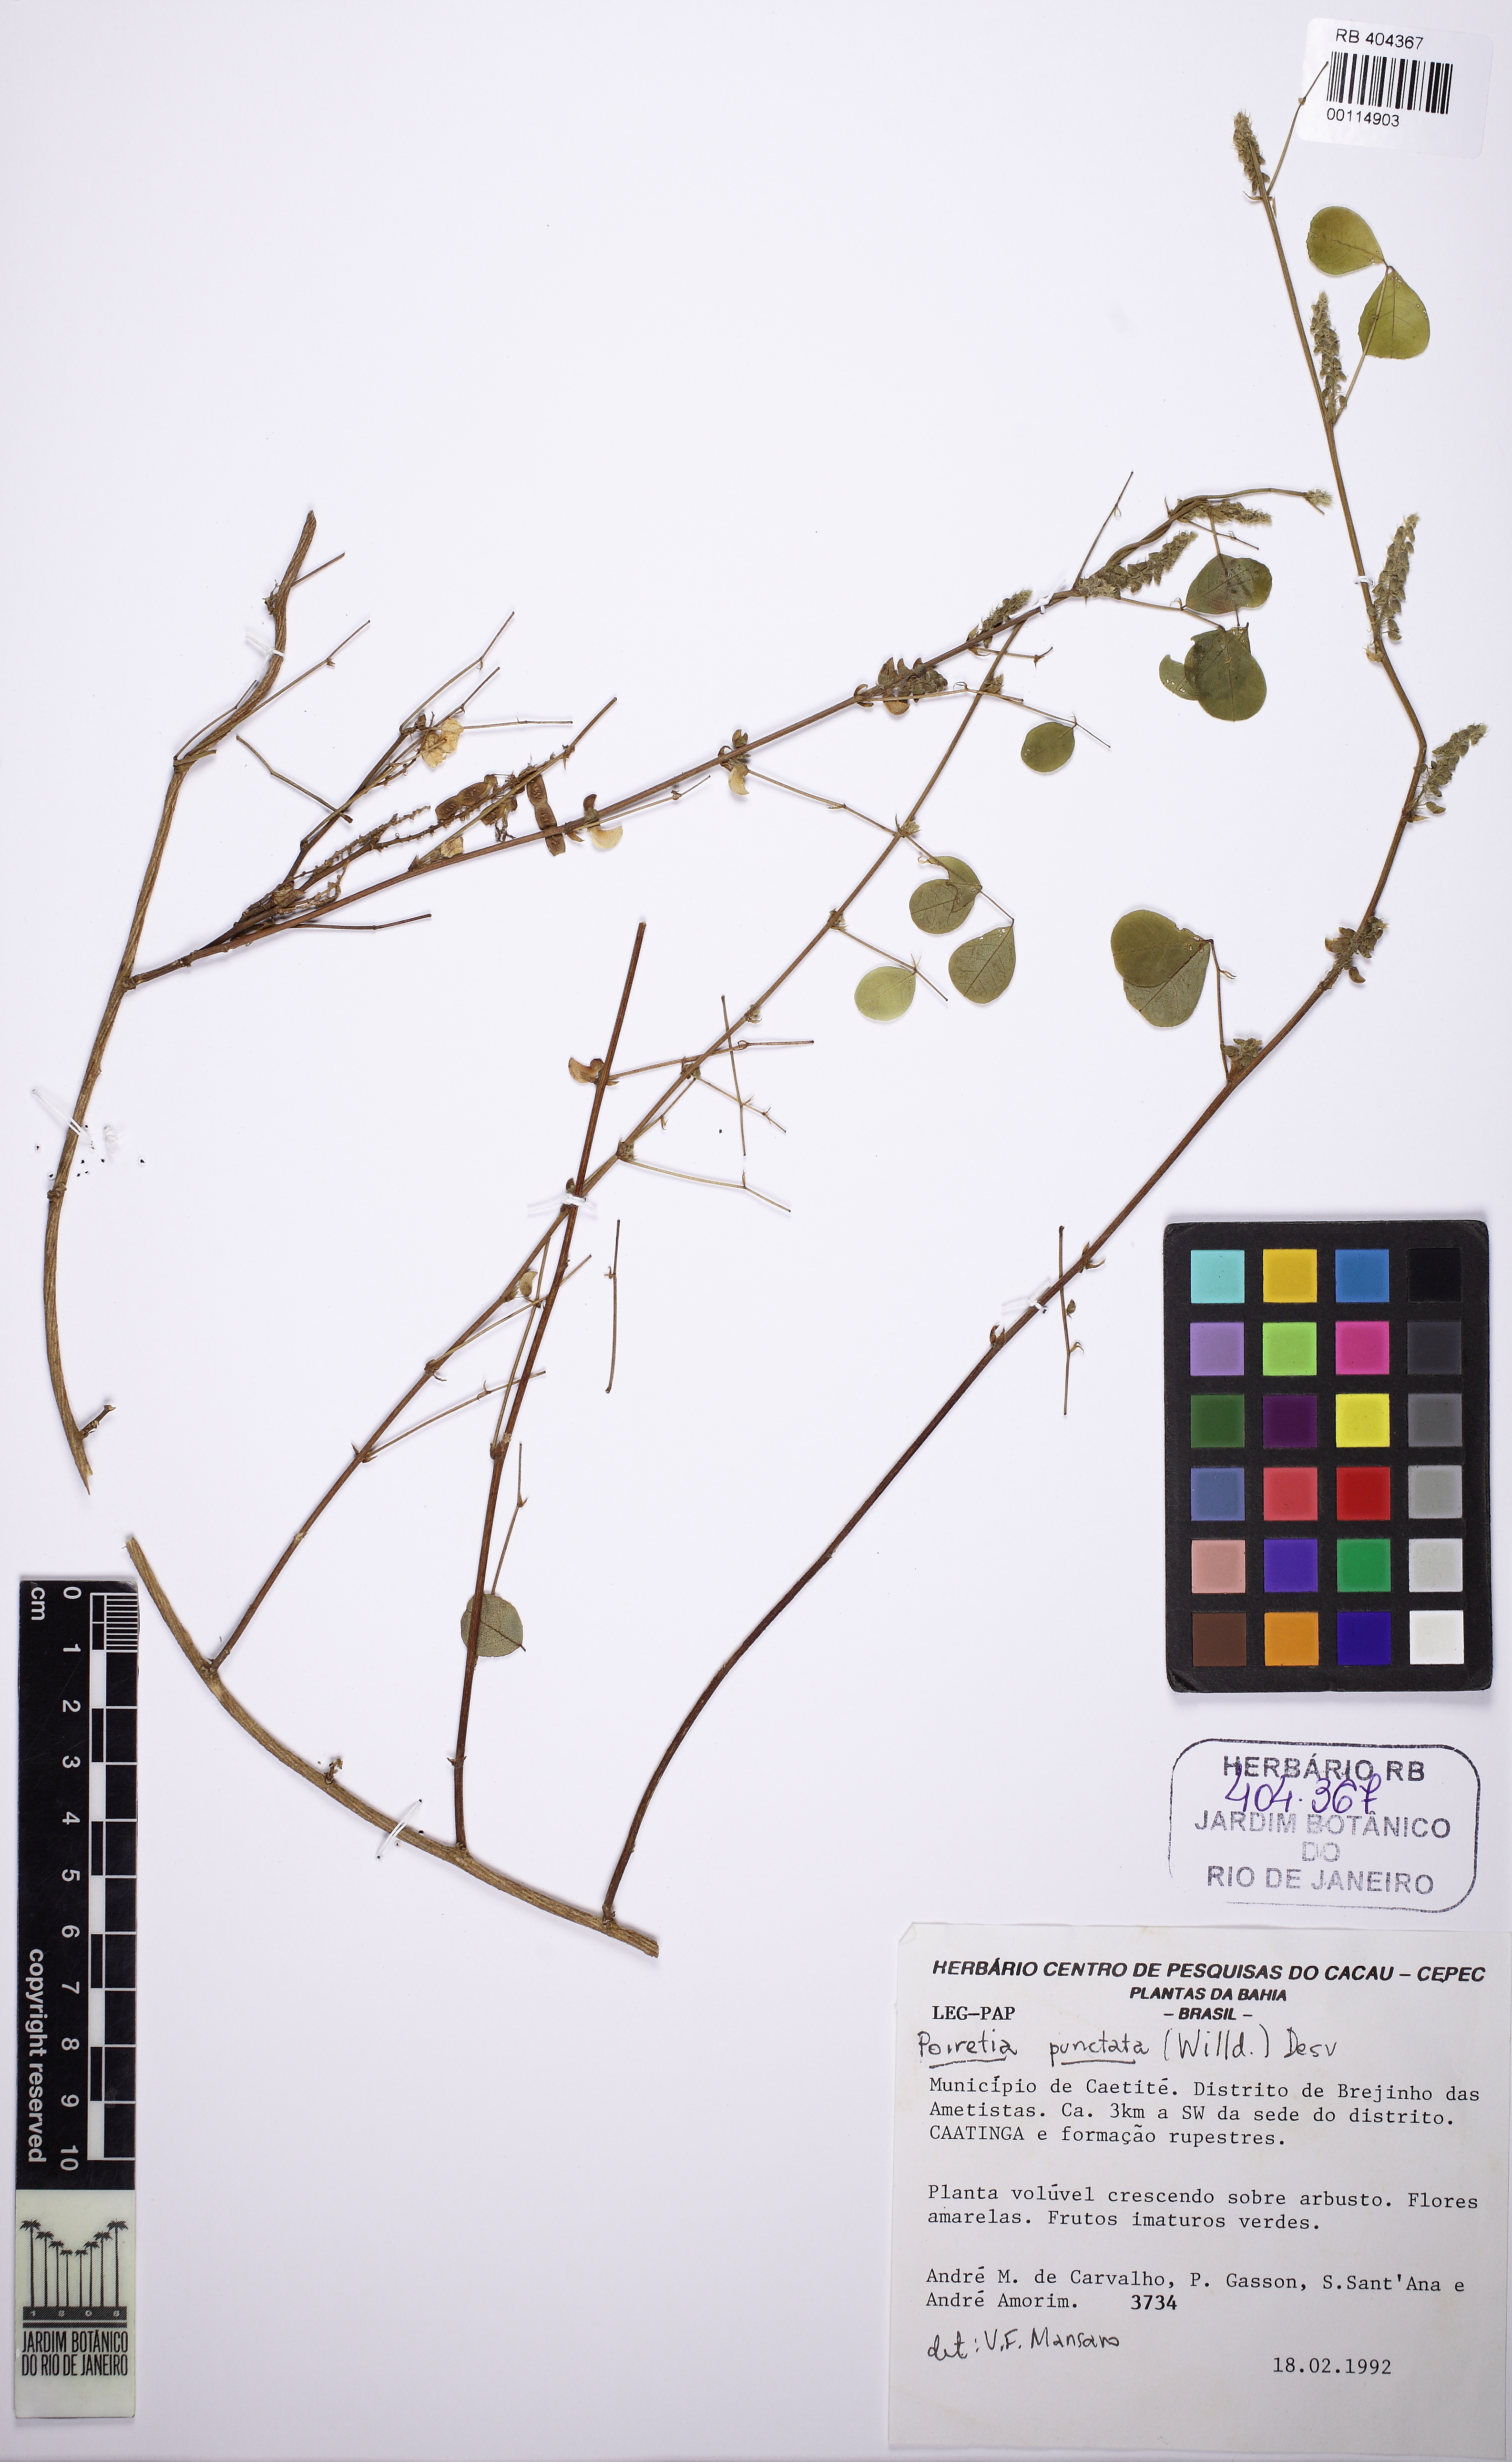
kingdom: Plantae
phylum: Tracheophyta
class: Magnoliopsida
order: Fabales
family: Fabaceae
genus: Poiretia
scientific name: Poiretia punctata
